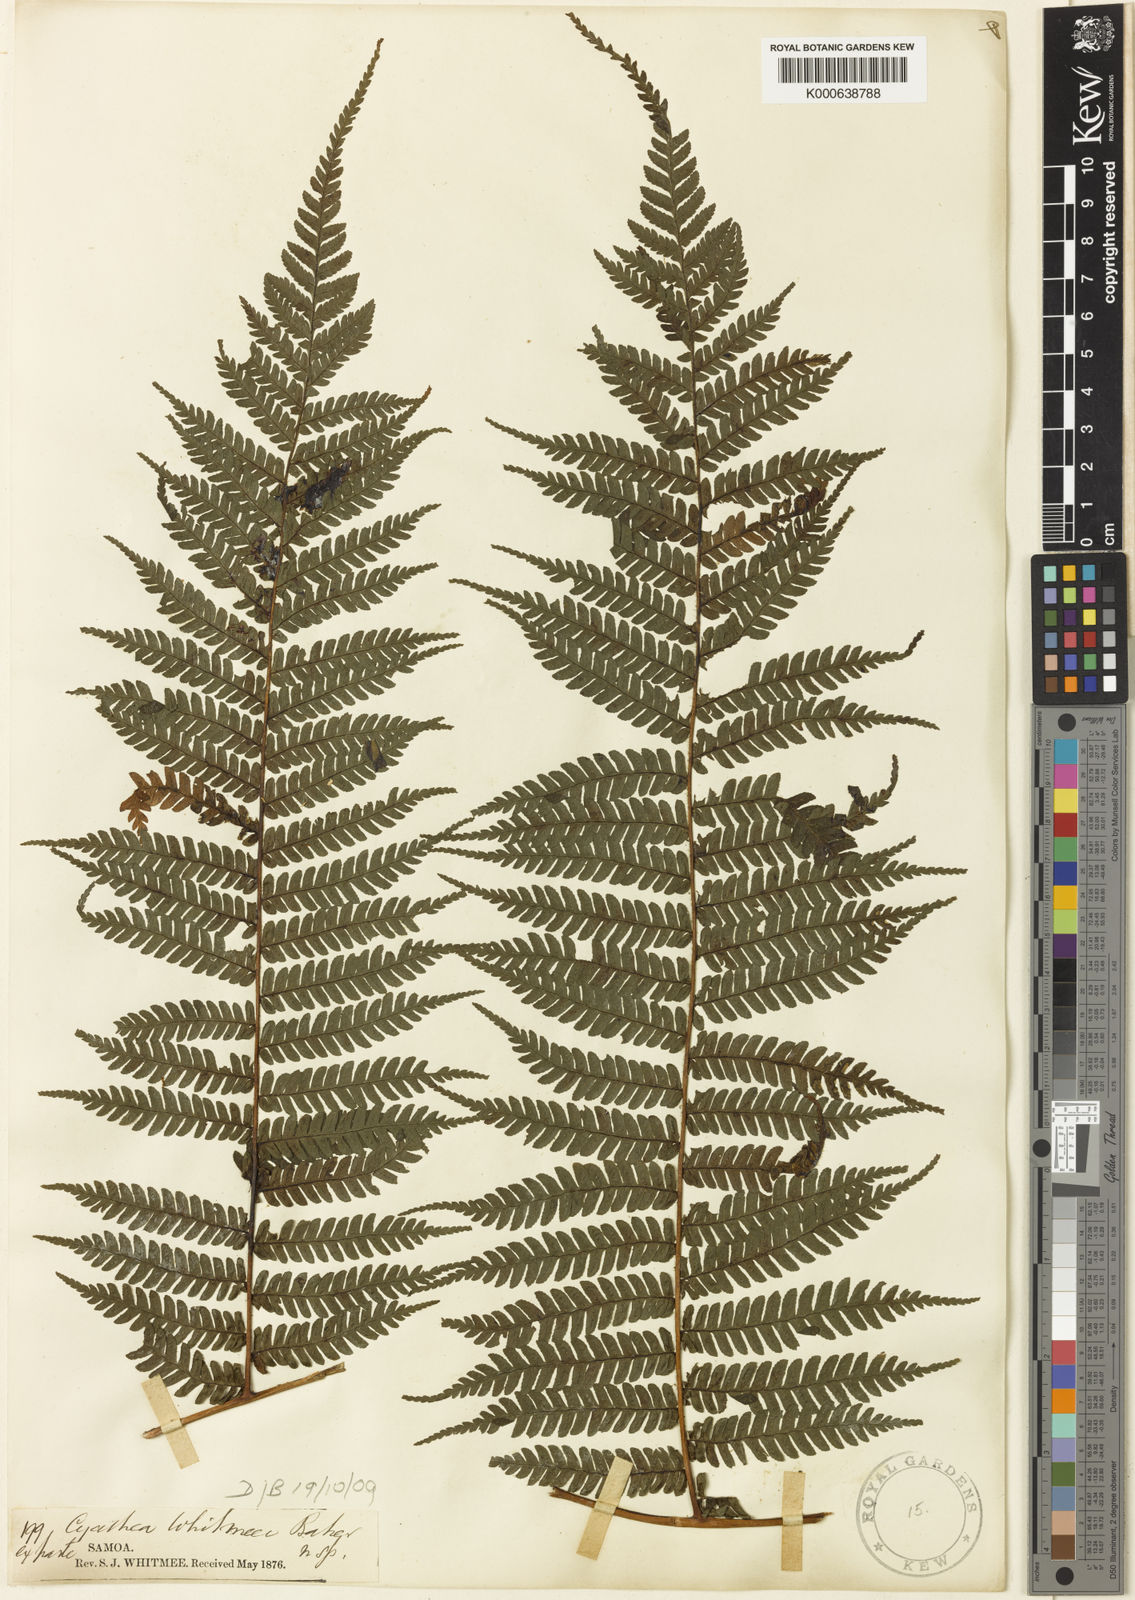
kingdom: Plantae
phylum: Tracheophyta
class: Polypodiopsida
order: Cyatheales
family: Cyatheaceae
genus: Cyathea
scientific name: Cyathea whitmeei
